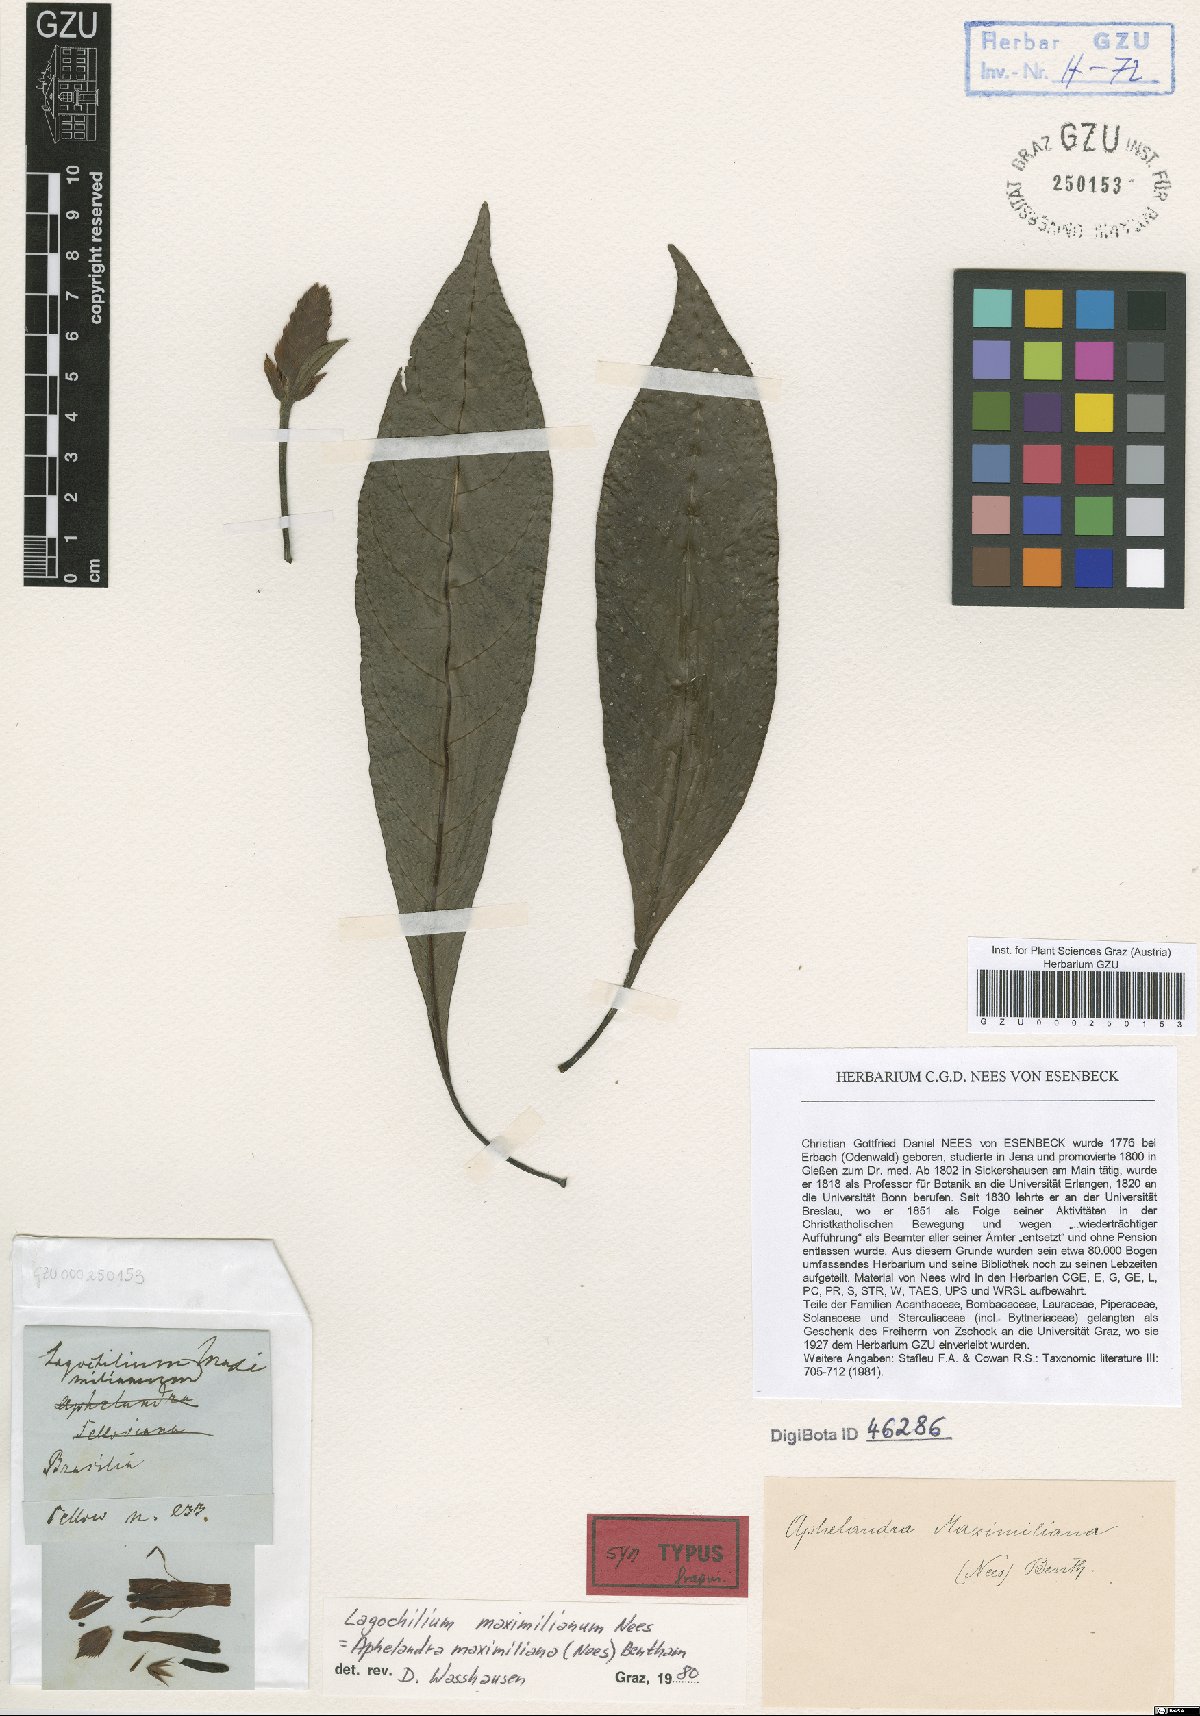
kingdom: Plantae
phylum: Tracheophyta
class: Magnoliopsida
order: Lamiales
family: Acanthaceae
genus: Aphelandra
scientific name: Aphelandra maximiliana
